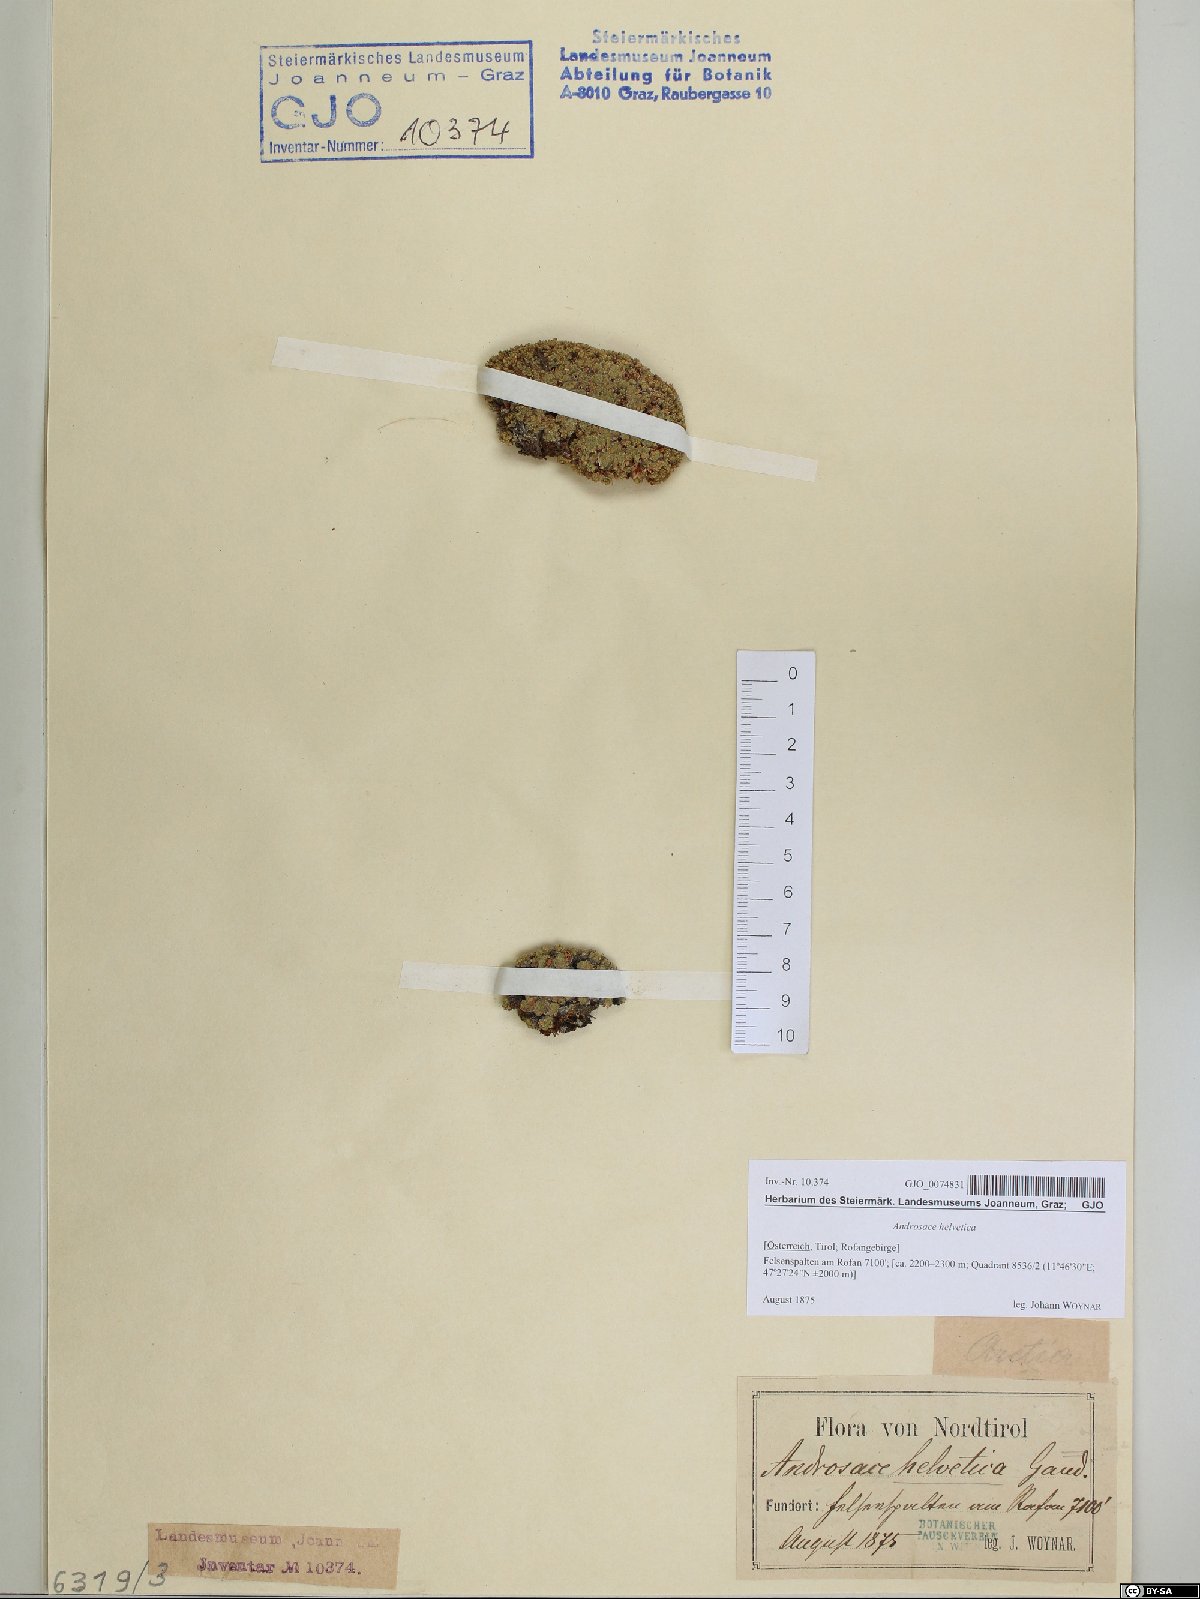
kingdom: Plantae
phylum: Tracheophyta
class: Magnoliopsida
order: Ericales
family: Primulaceae
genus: Androsace
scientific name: Androsace helvetica
